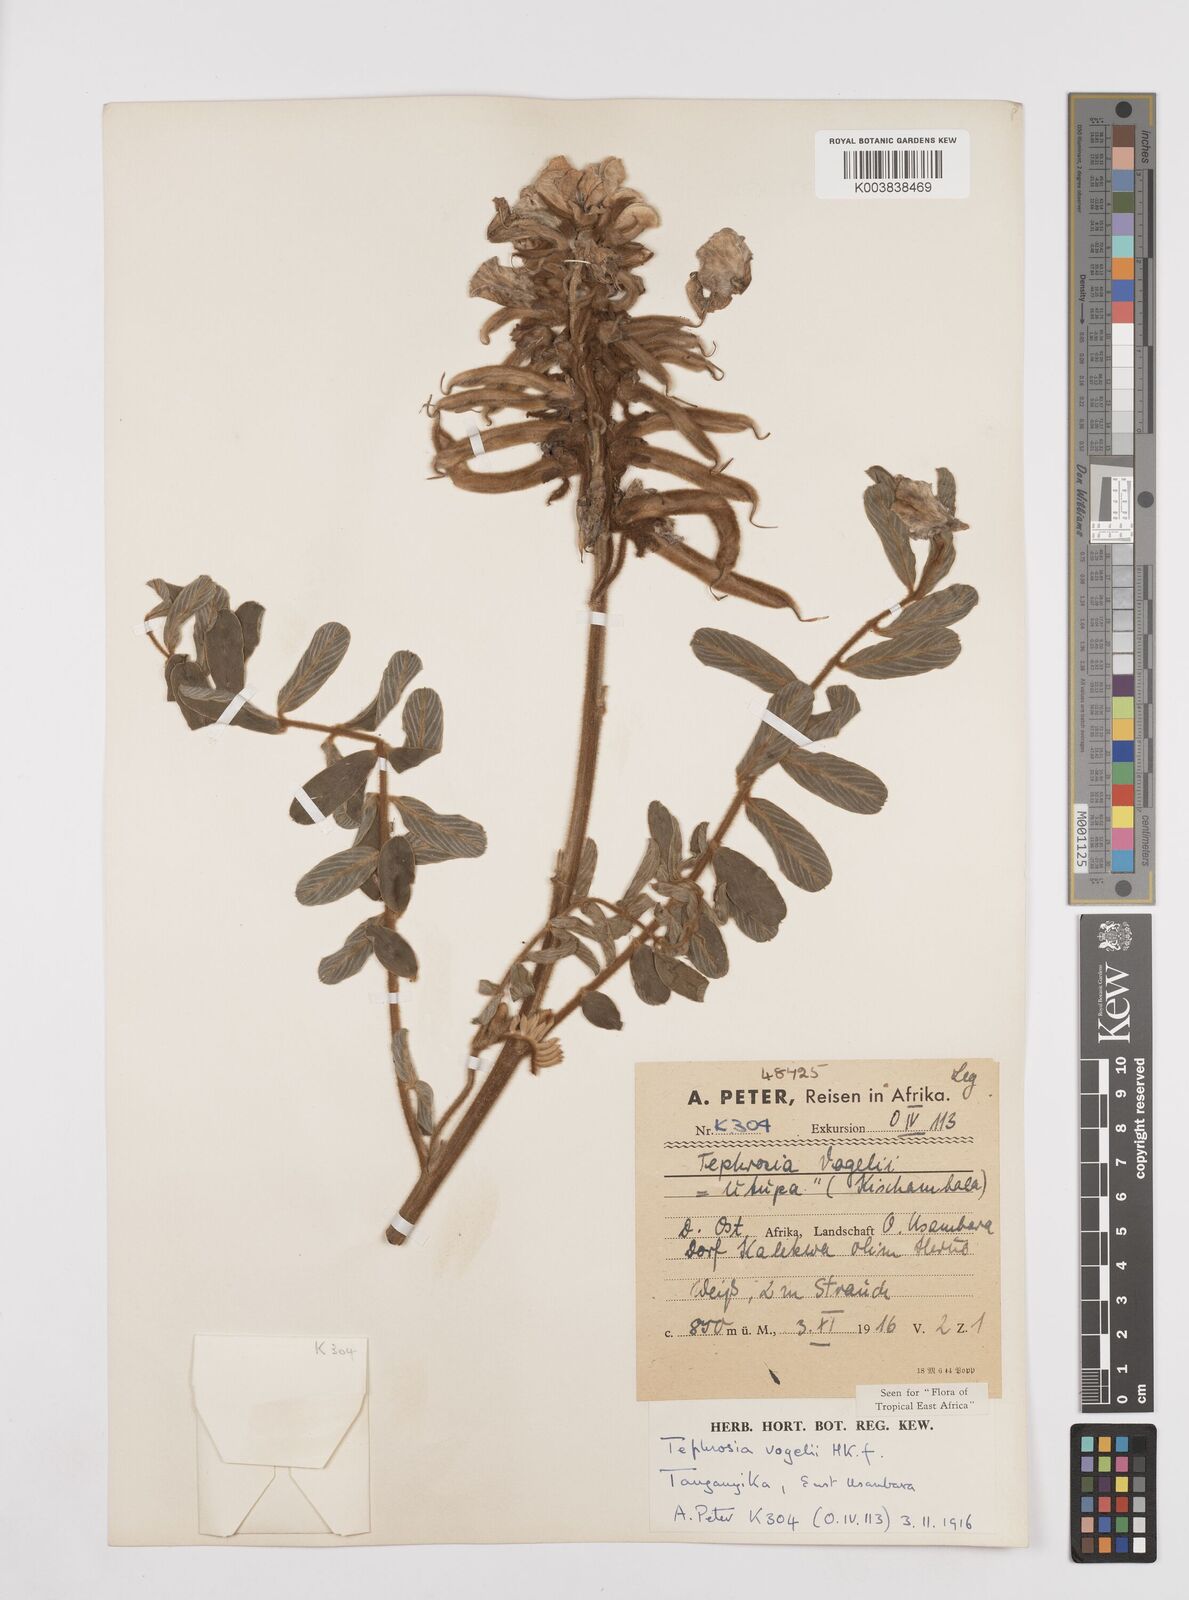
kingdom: Plantae
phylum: Tracheophyta
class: Magnoliopsida
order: Fabales
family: Fabaceae
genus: Tephrosia
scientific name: Tephrosia vogelii
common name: Vogel tephrosia
